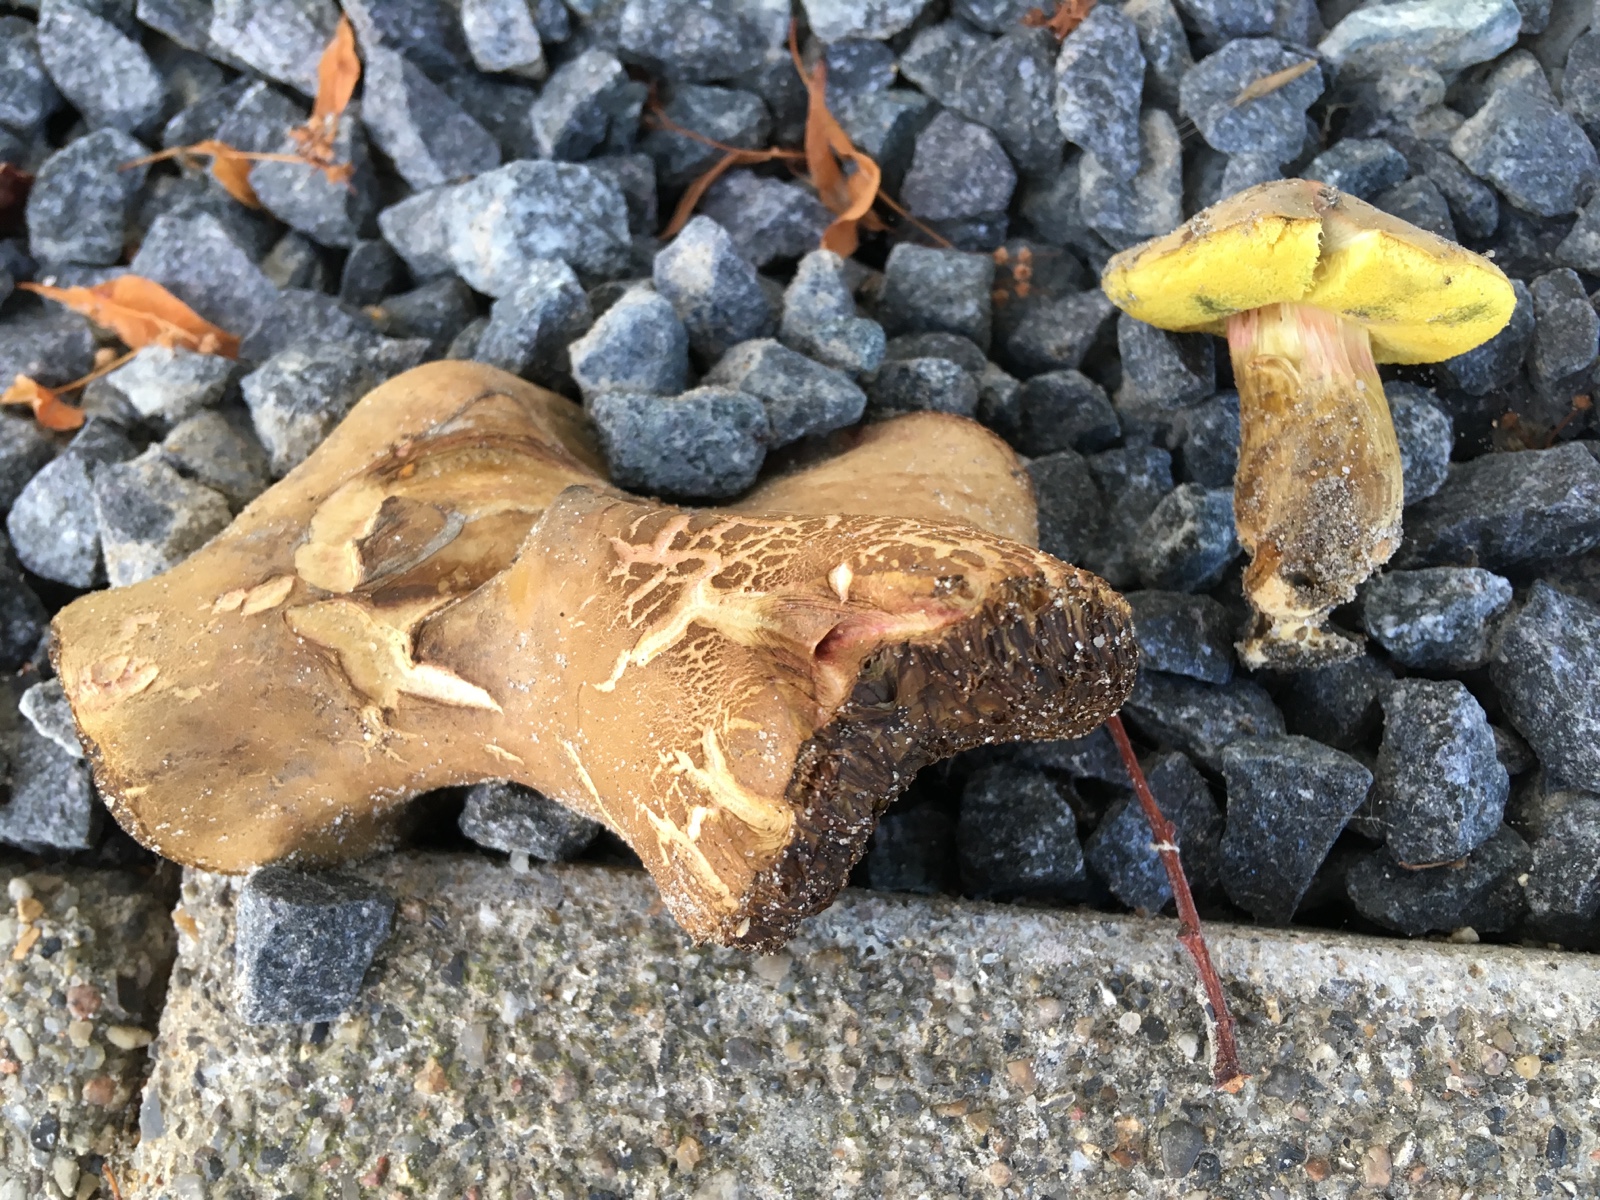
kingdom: Fungi
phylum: Basidiomycota
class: Agaricomycetes
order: Boletales
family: Boletaceae
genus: Hortiboletus
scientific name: Hortiboletus bubalinus
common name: aurora-rørhat
